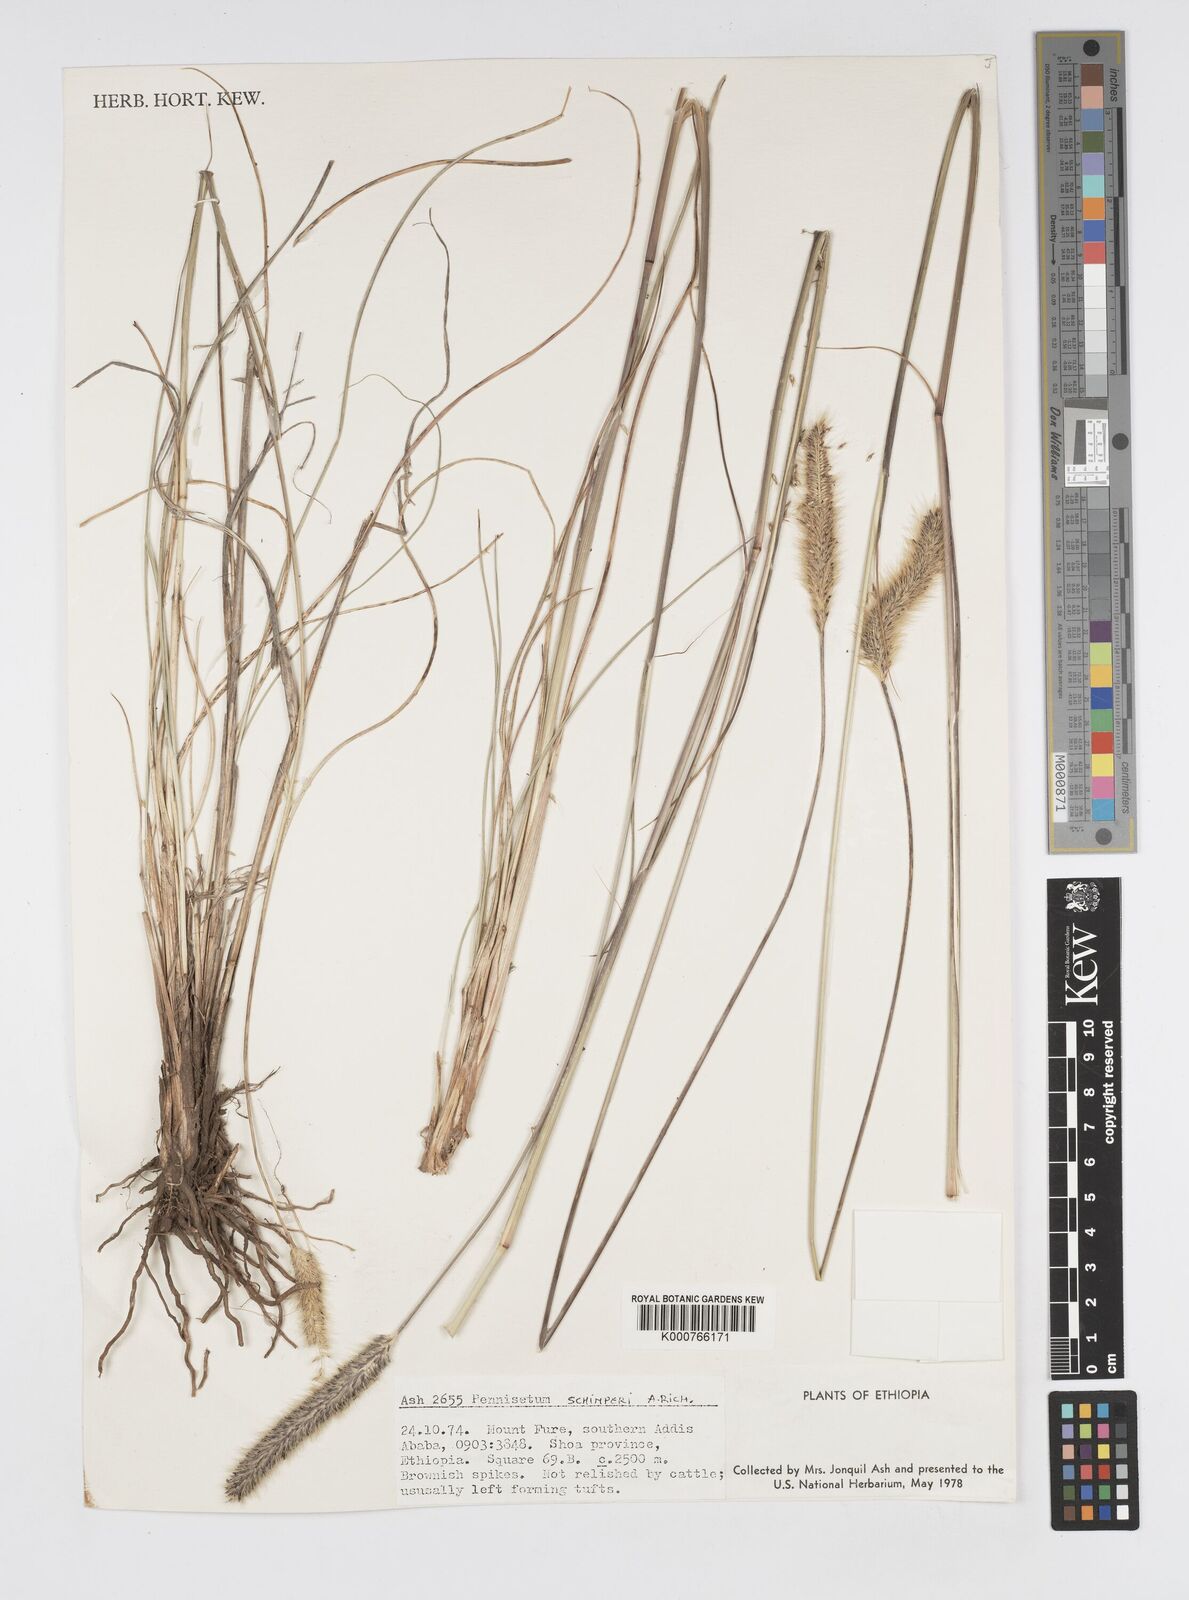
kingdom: Plantae
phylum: Tracheophyta
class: Liliopsida
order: Poales
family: Poaceae
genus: Cenchrus
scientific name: Cenchrus sphacelatus
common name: Bulgras
